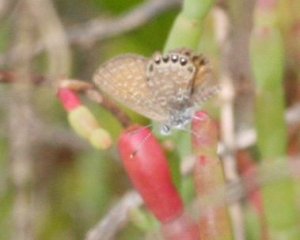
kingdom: Animalia
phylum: Arthropoda
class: Insecta
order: Lepidoptera
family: Lycaenidae
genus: Brephidium
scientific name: Brephidium isophthalma
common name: Eastern Pygmy-Blue
